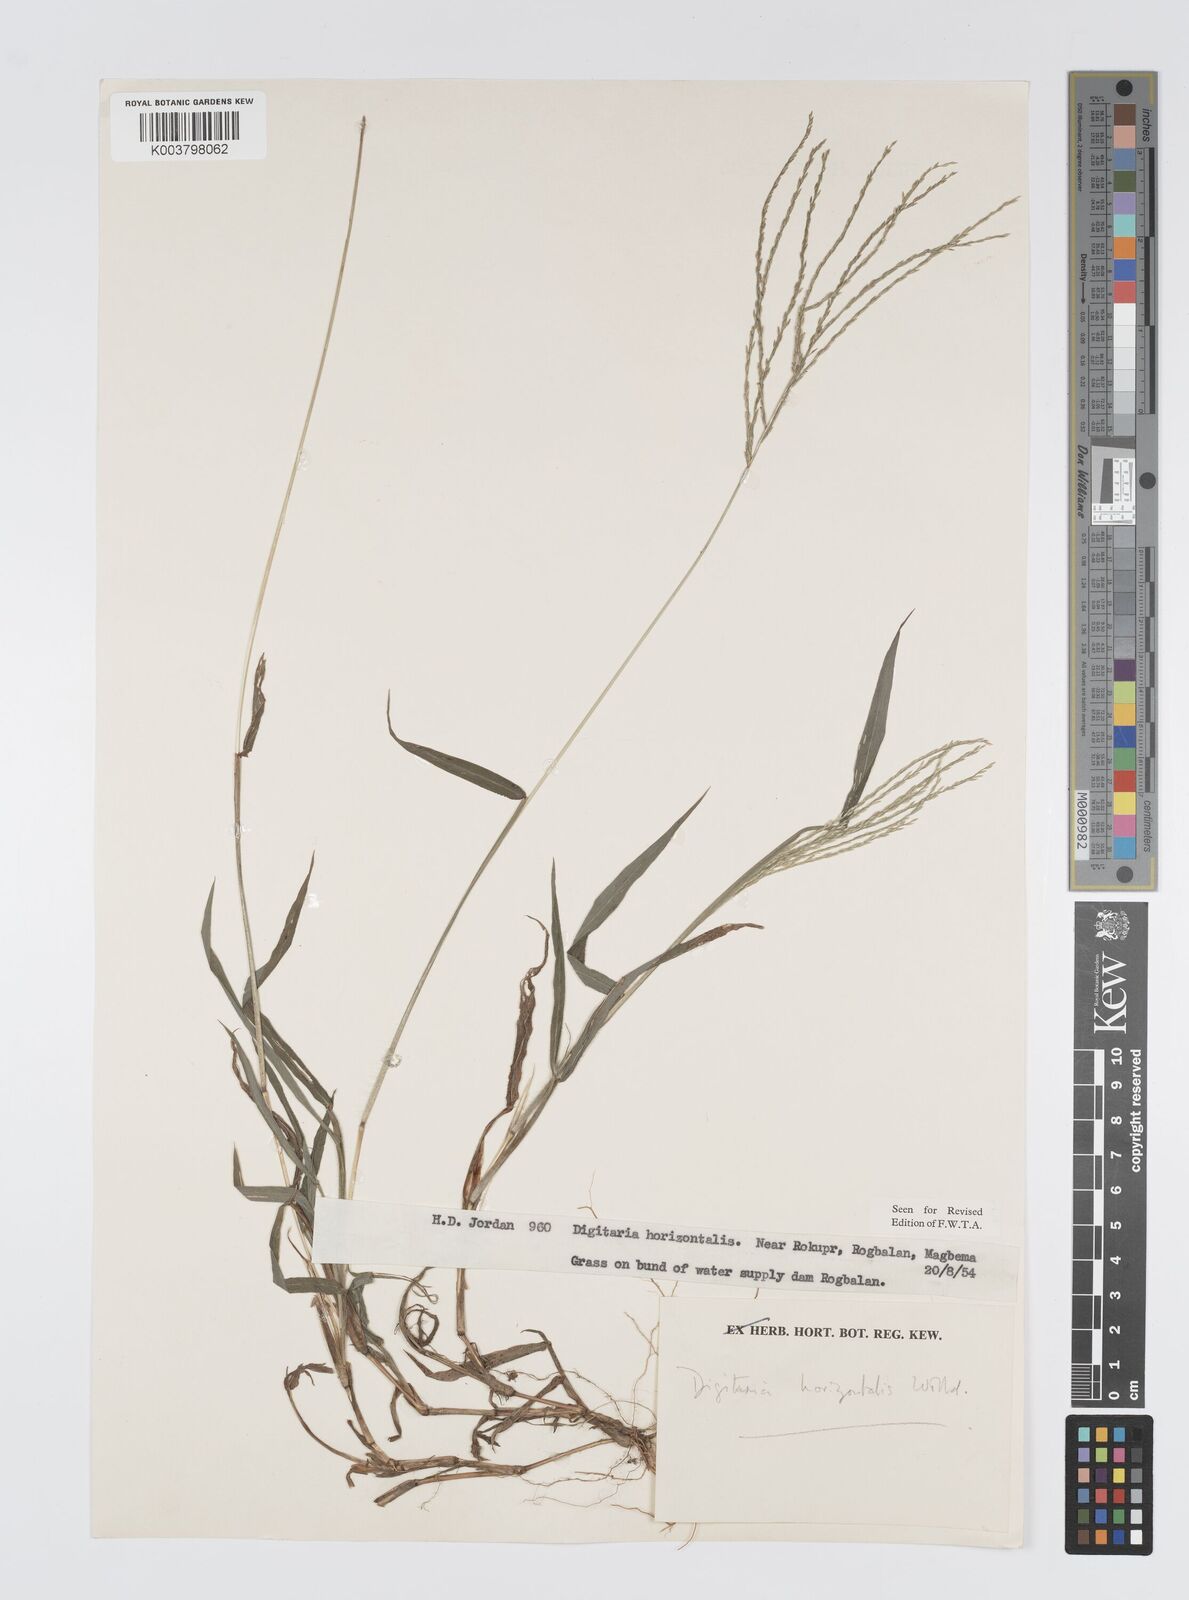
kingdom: Plantae
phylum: Tracheophyta
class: Liliopsida
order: Poales
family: Poaceae
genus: Digitaria
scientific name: Digitaria horizontalis
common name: Jamaican crabgrass
